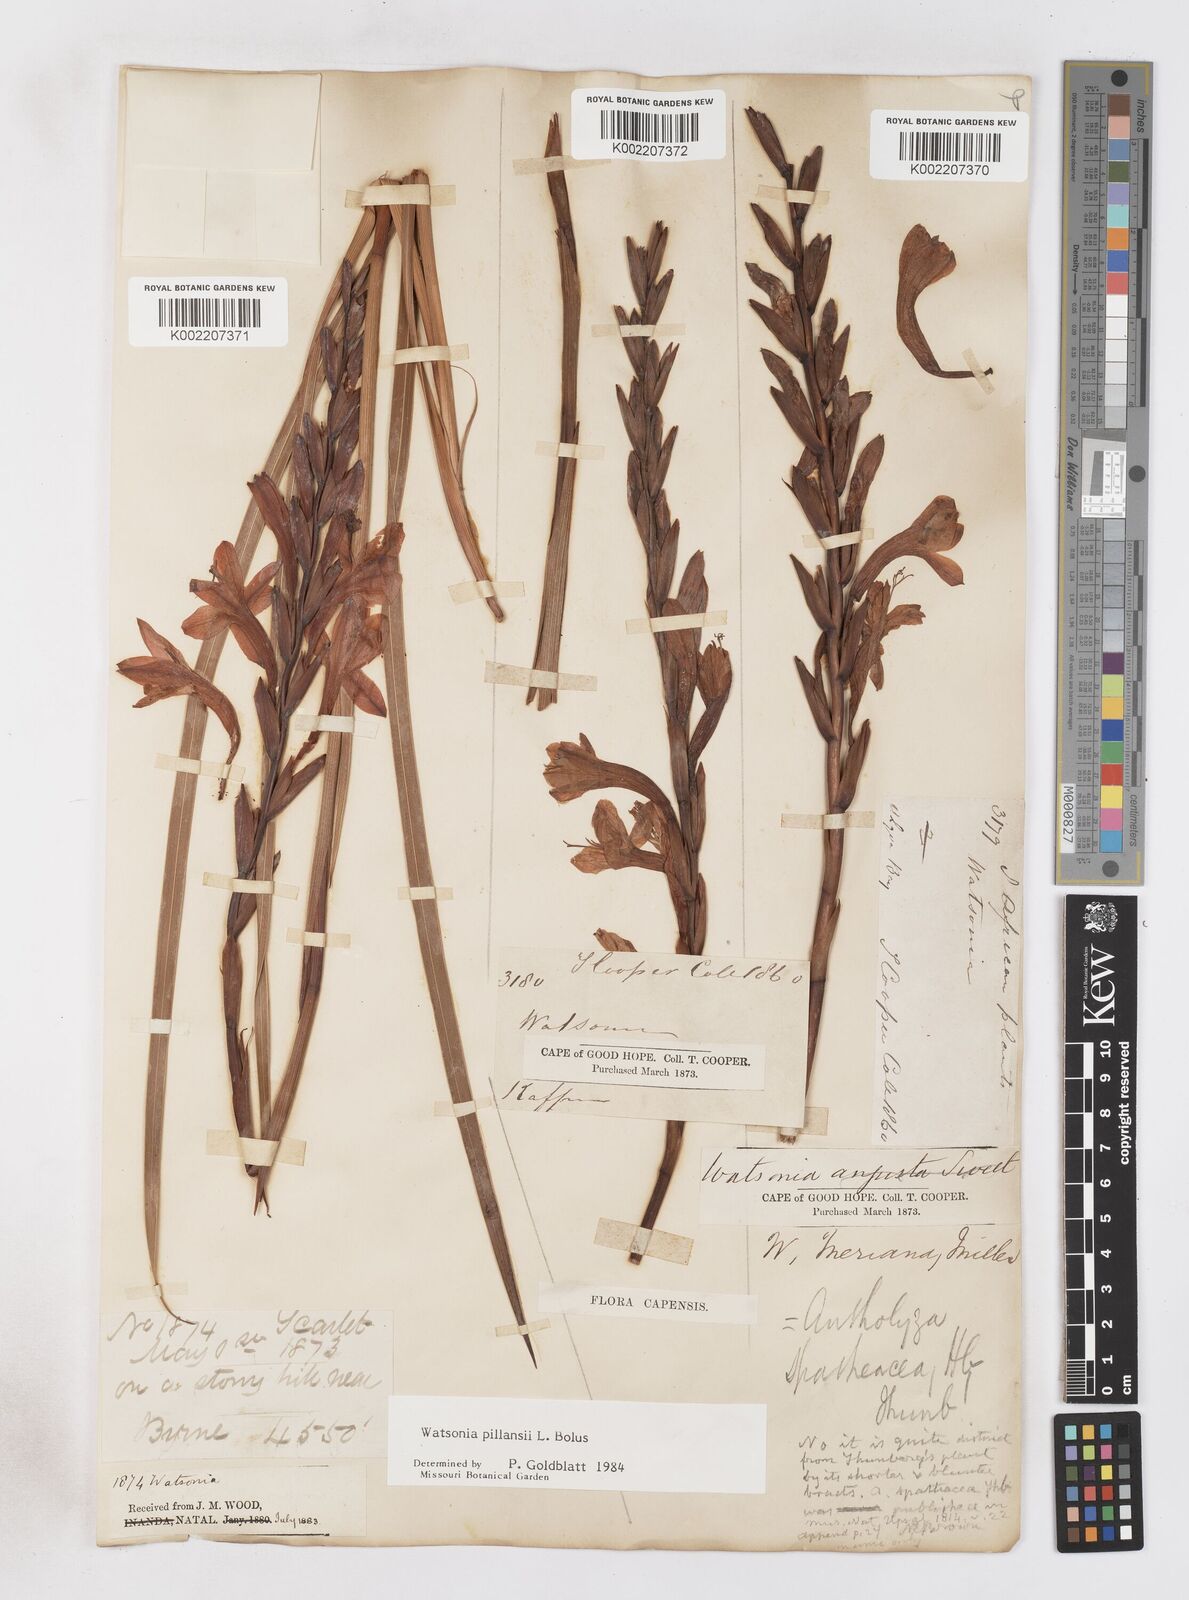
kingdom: Plantae
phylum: Tracheophyta
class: Liliopsida
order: Asparagales
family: Iridaceae
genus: Watsonia
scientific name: Watsonia pillansii
